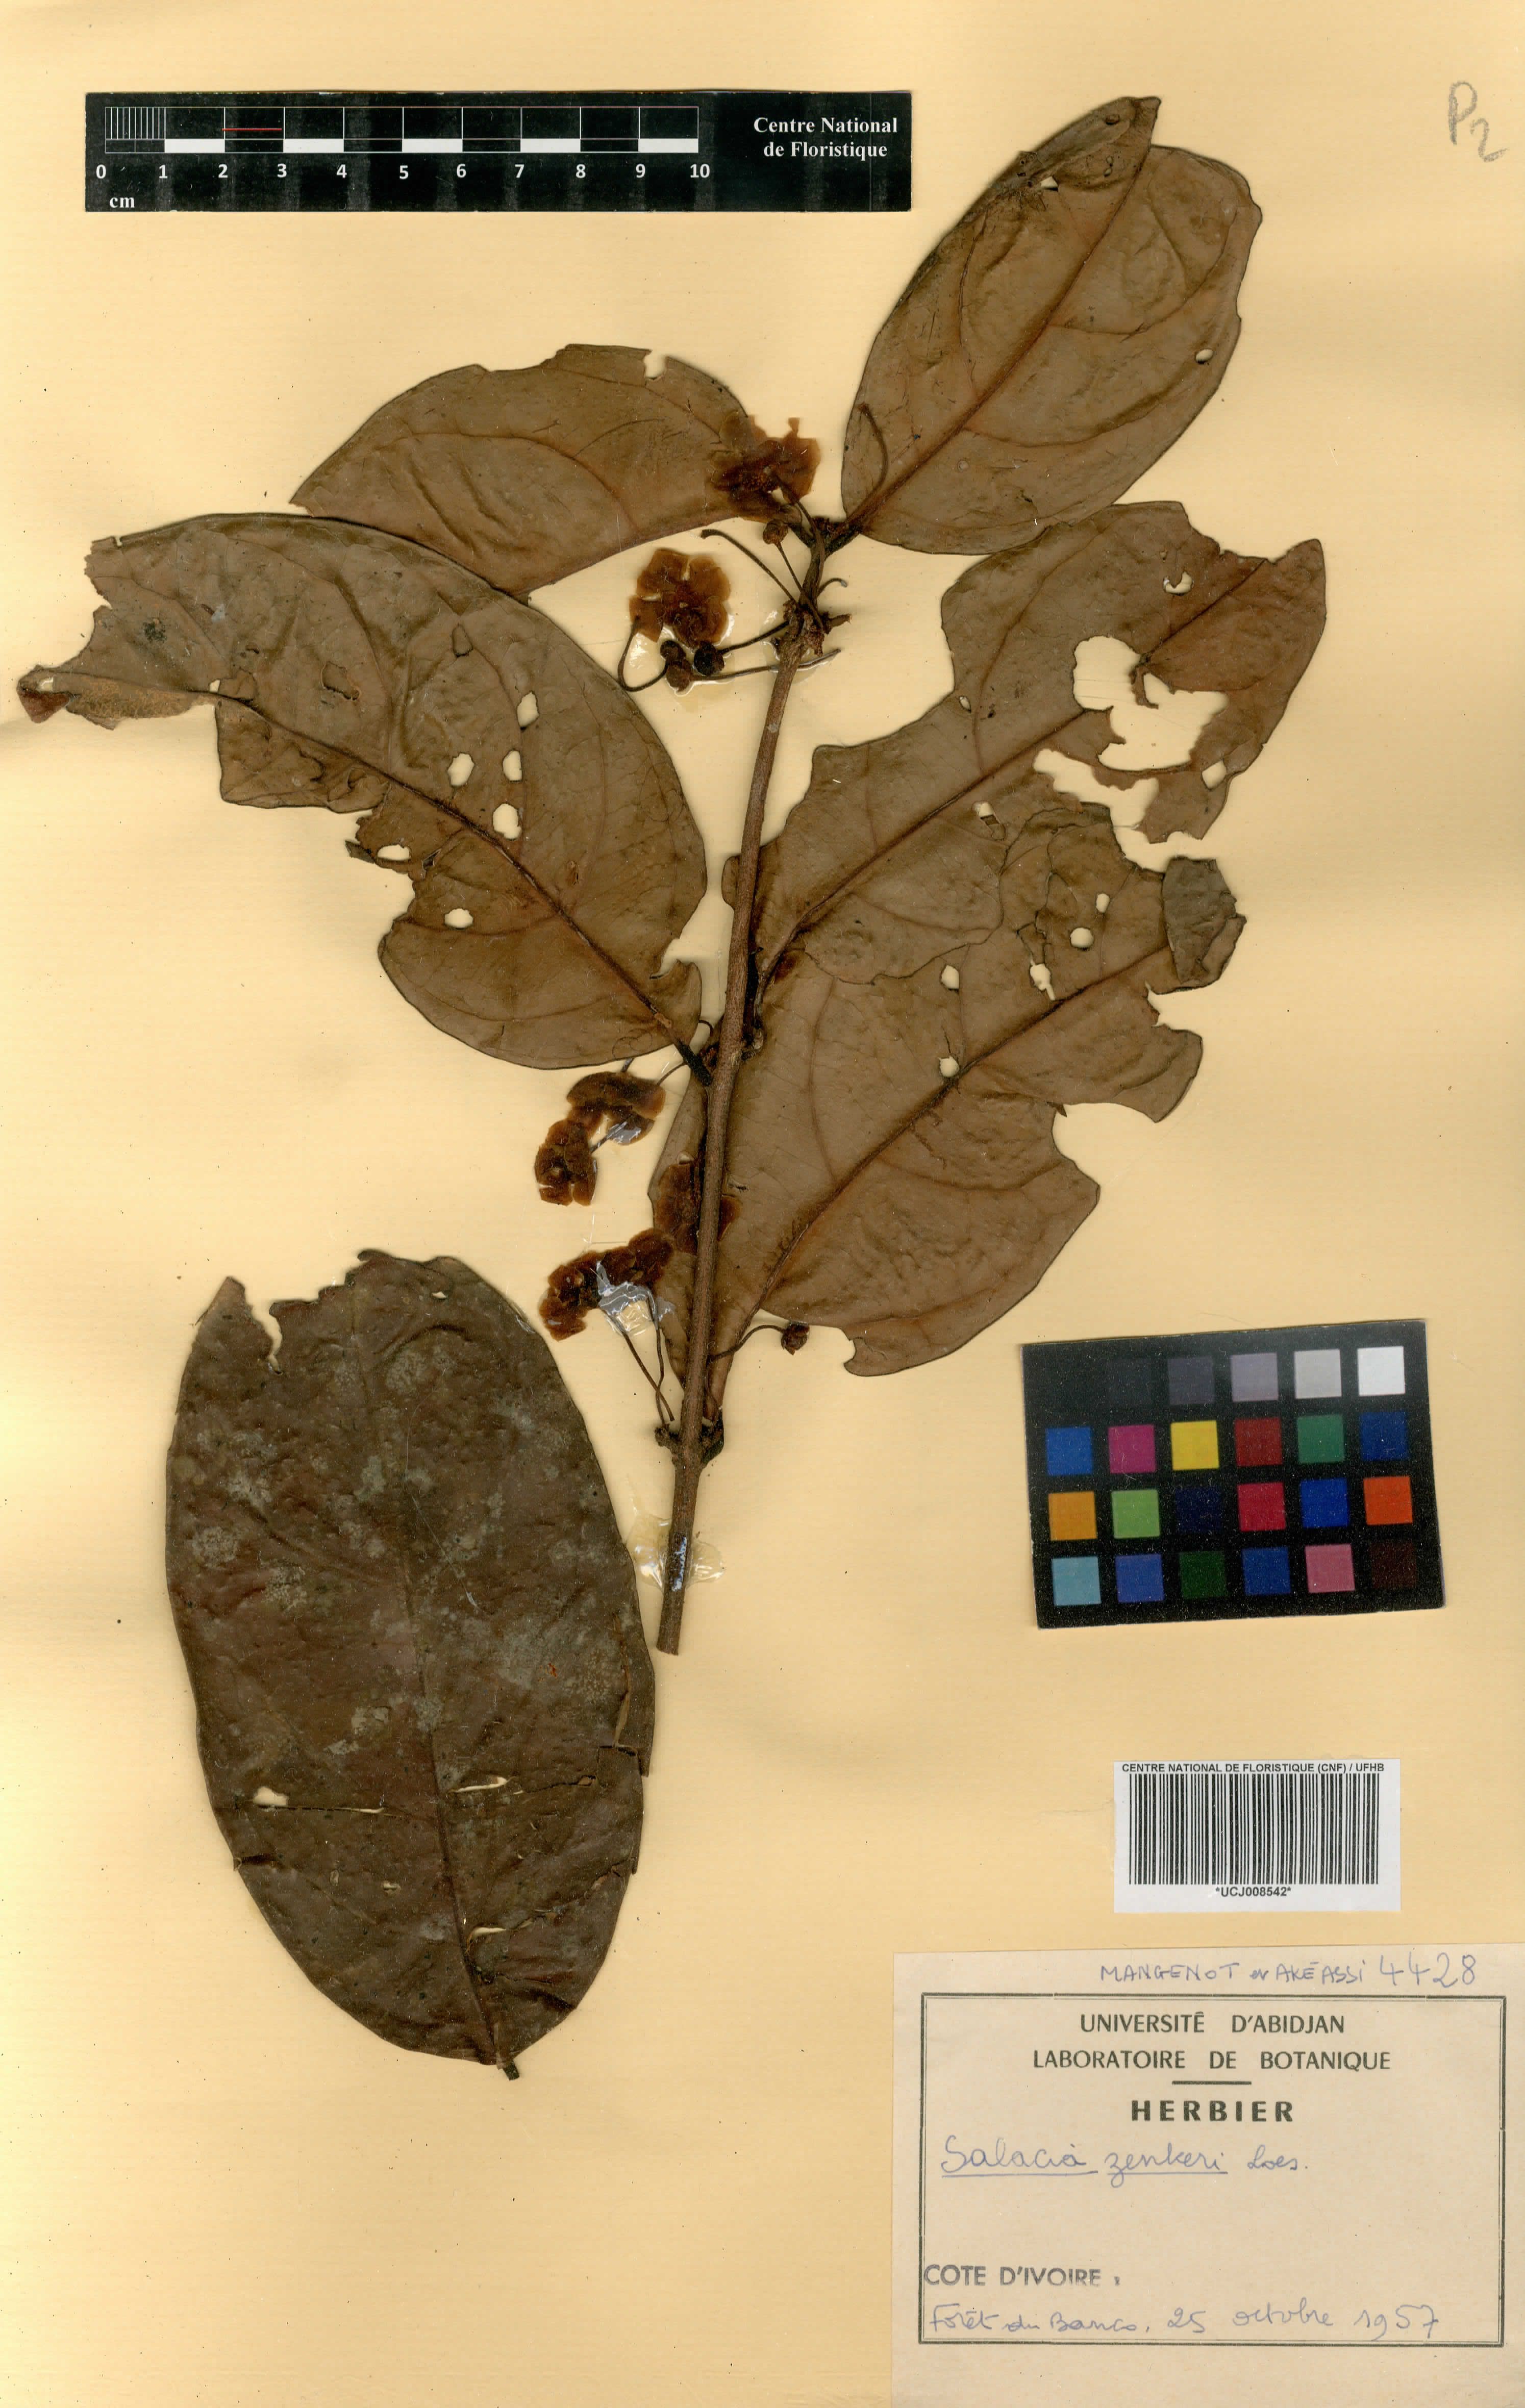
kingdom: Plantae
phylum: Tracheophyta
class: Magnoliopsida
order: Celastrales
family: Celastraceae
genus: Salacia
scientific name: Salacia zenkeri
